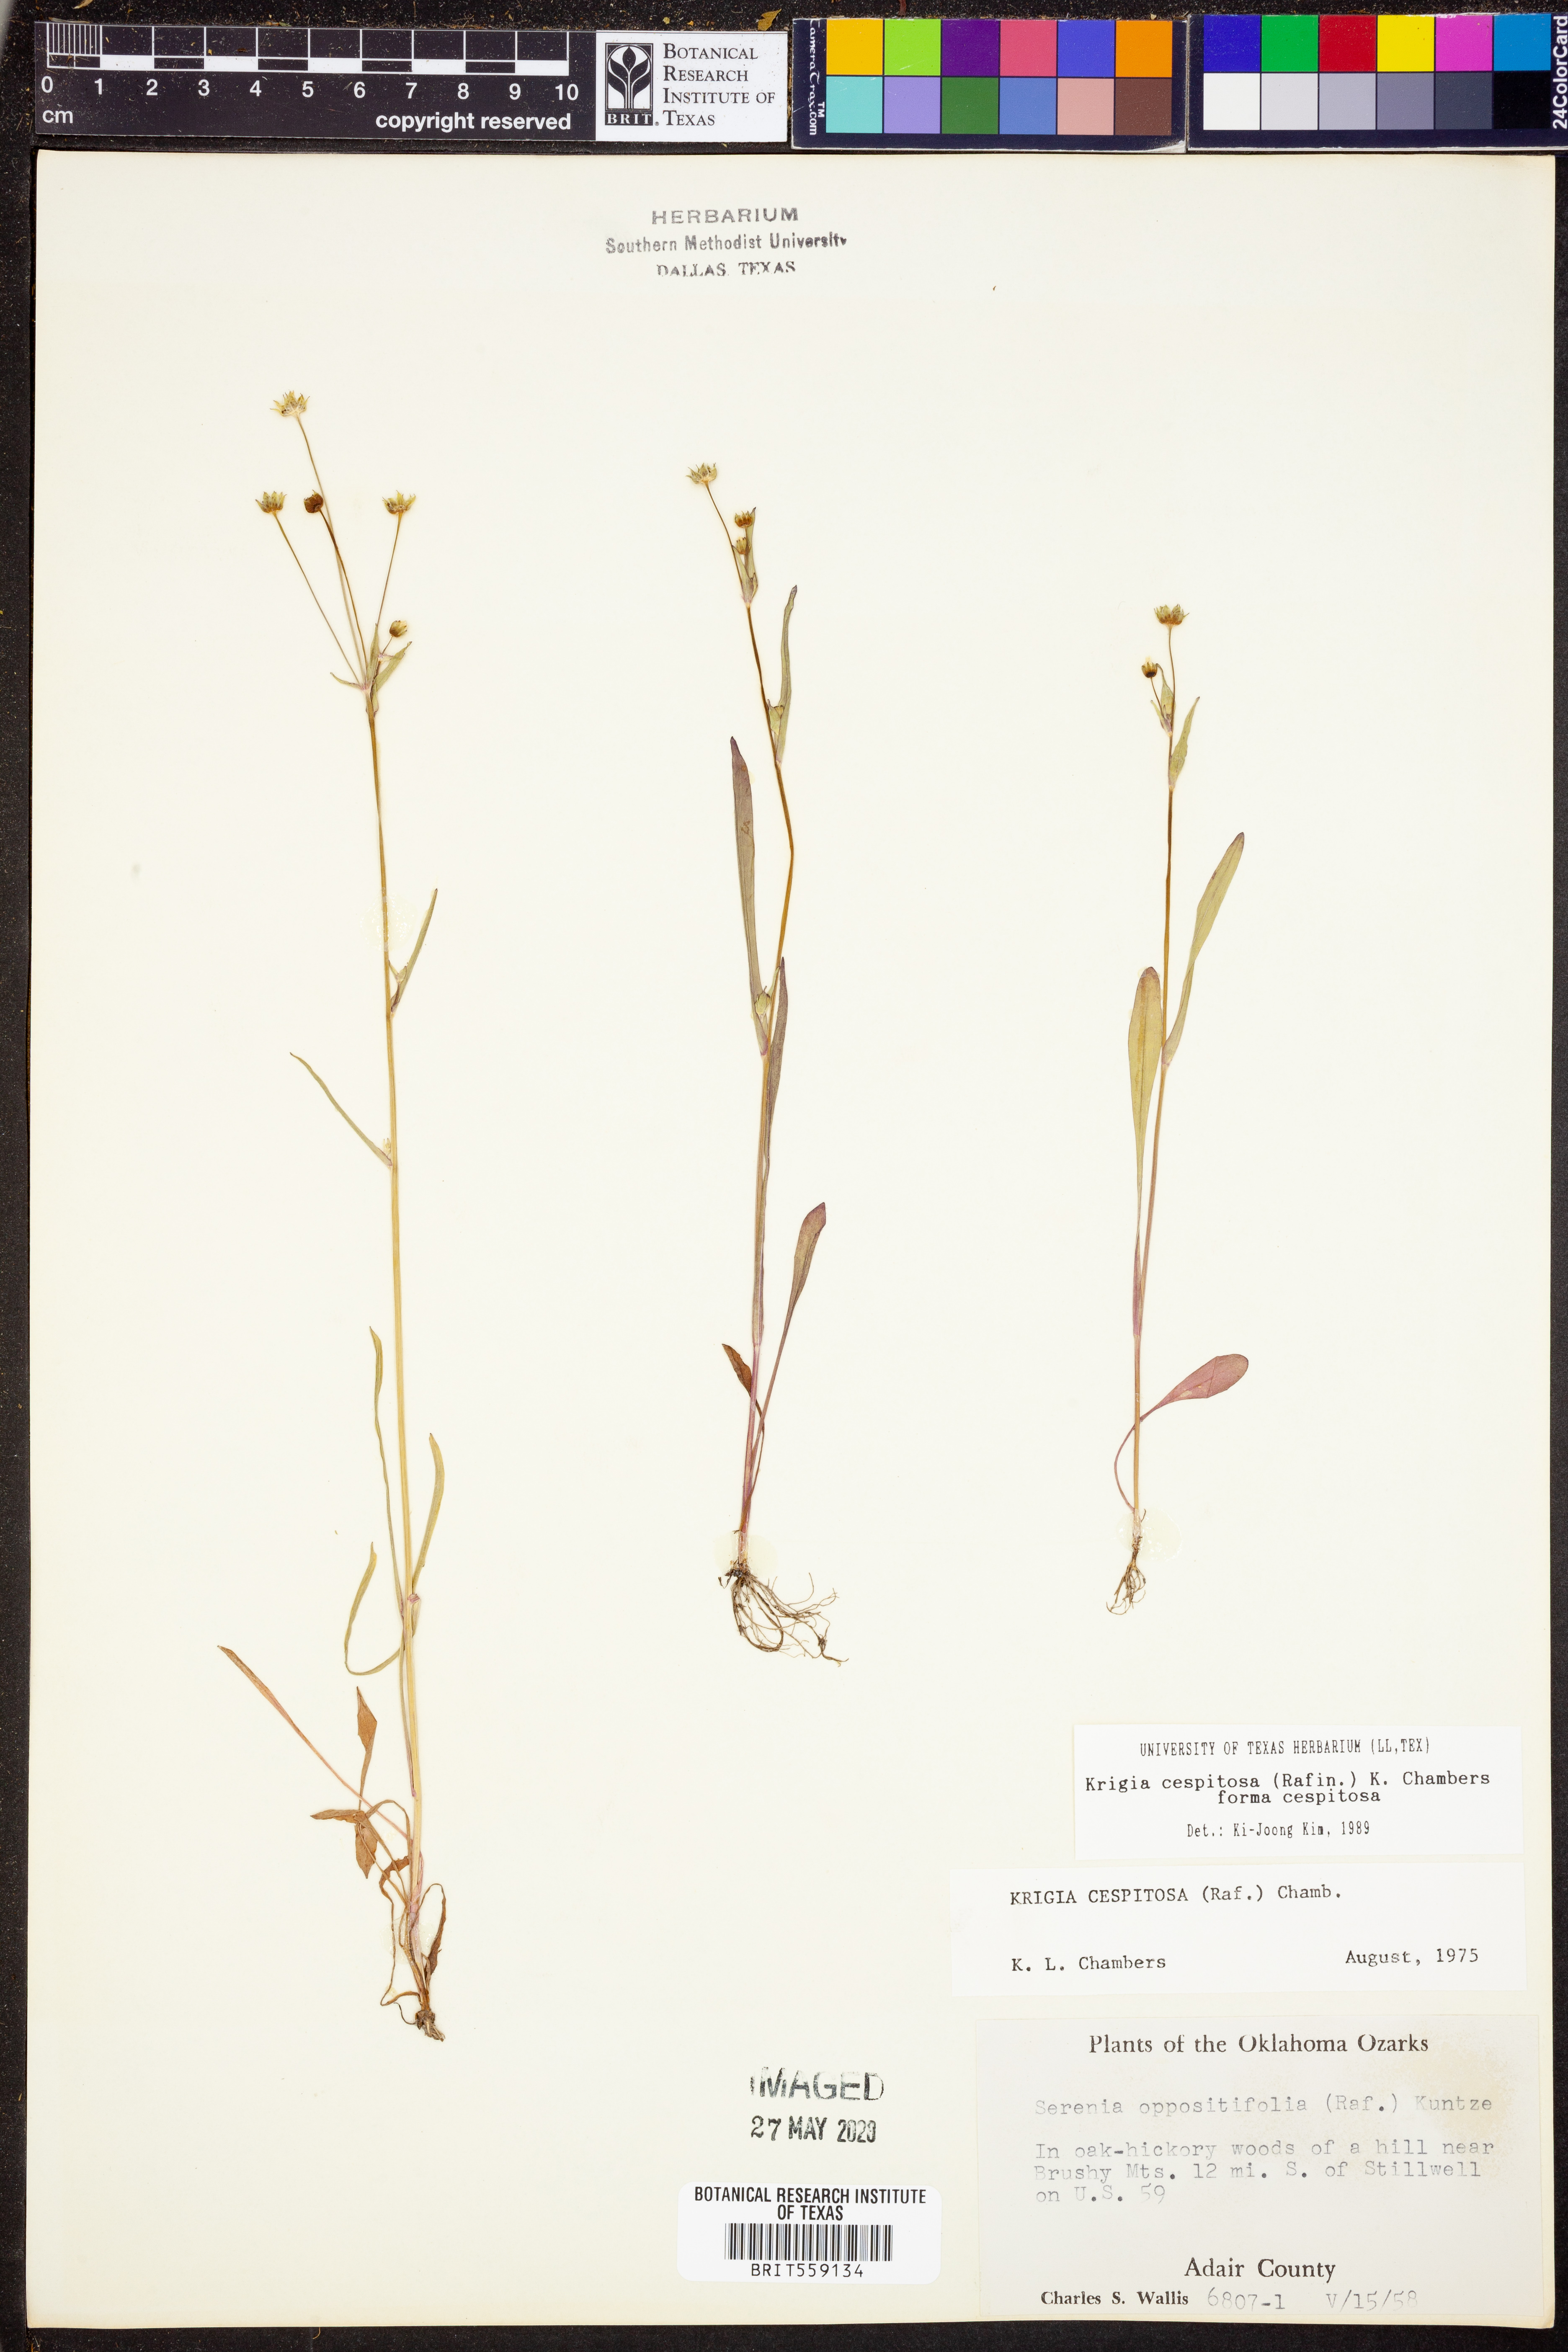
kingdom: Plantae
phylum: Tracheophyta
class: Magnoliopsida
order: Asterales
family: Asteraceae
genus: Krigia
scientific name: Krigia cespitosa
